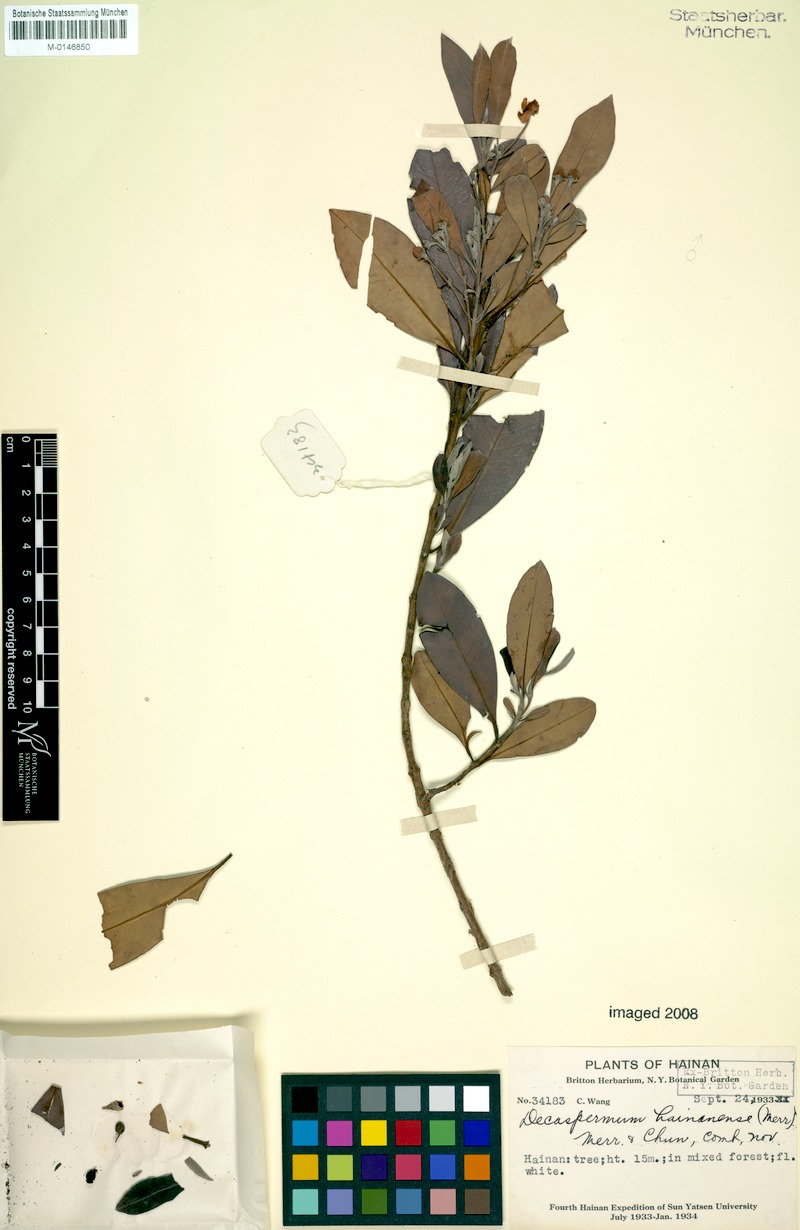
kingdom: Plantae
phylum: Tracheophyta
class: Magnoliopsida
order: Myrtales
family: Myrtaceae
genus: Decaspermum
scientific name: Decaspermum hainanense
